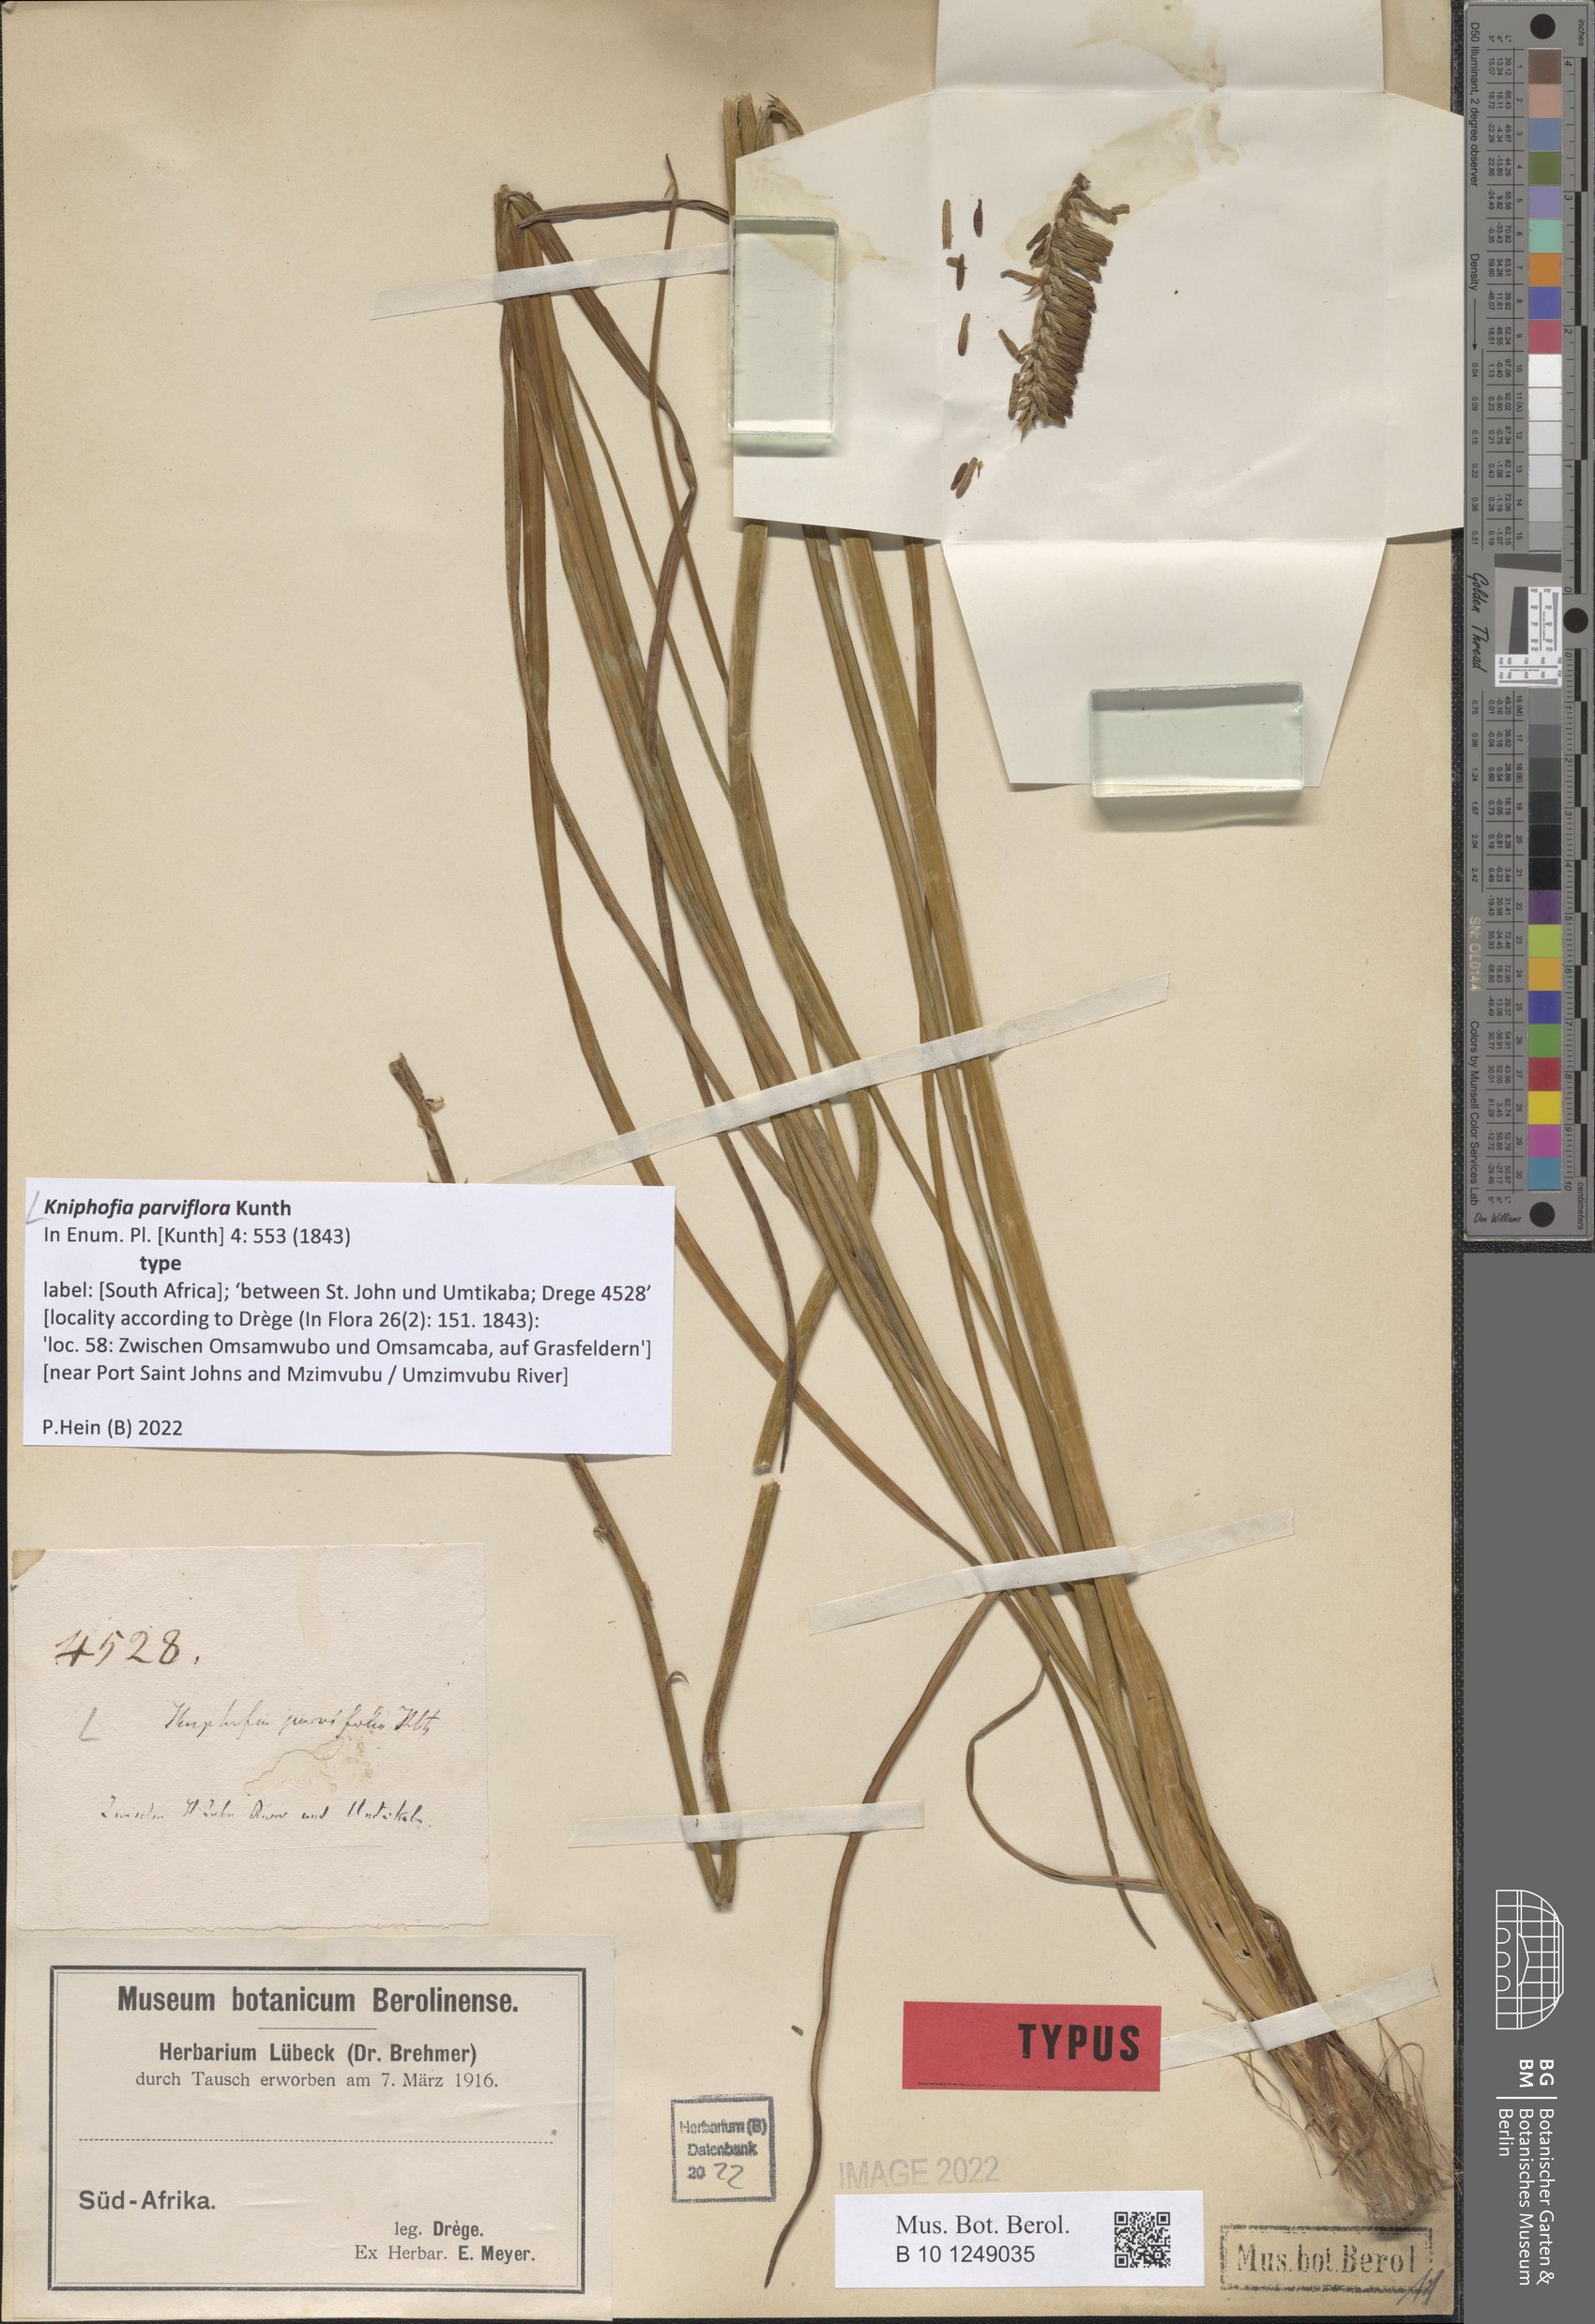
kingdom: Plantae
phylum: Tracheophyta
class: Liliopsida
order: Asparagales
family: Asphodelaceae
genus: Kniphofia
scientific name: Kniphofia parviflora
